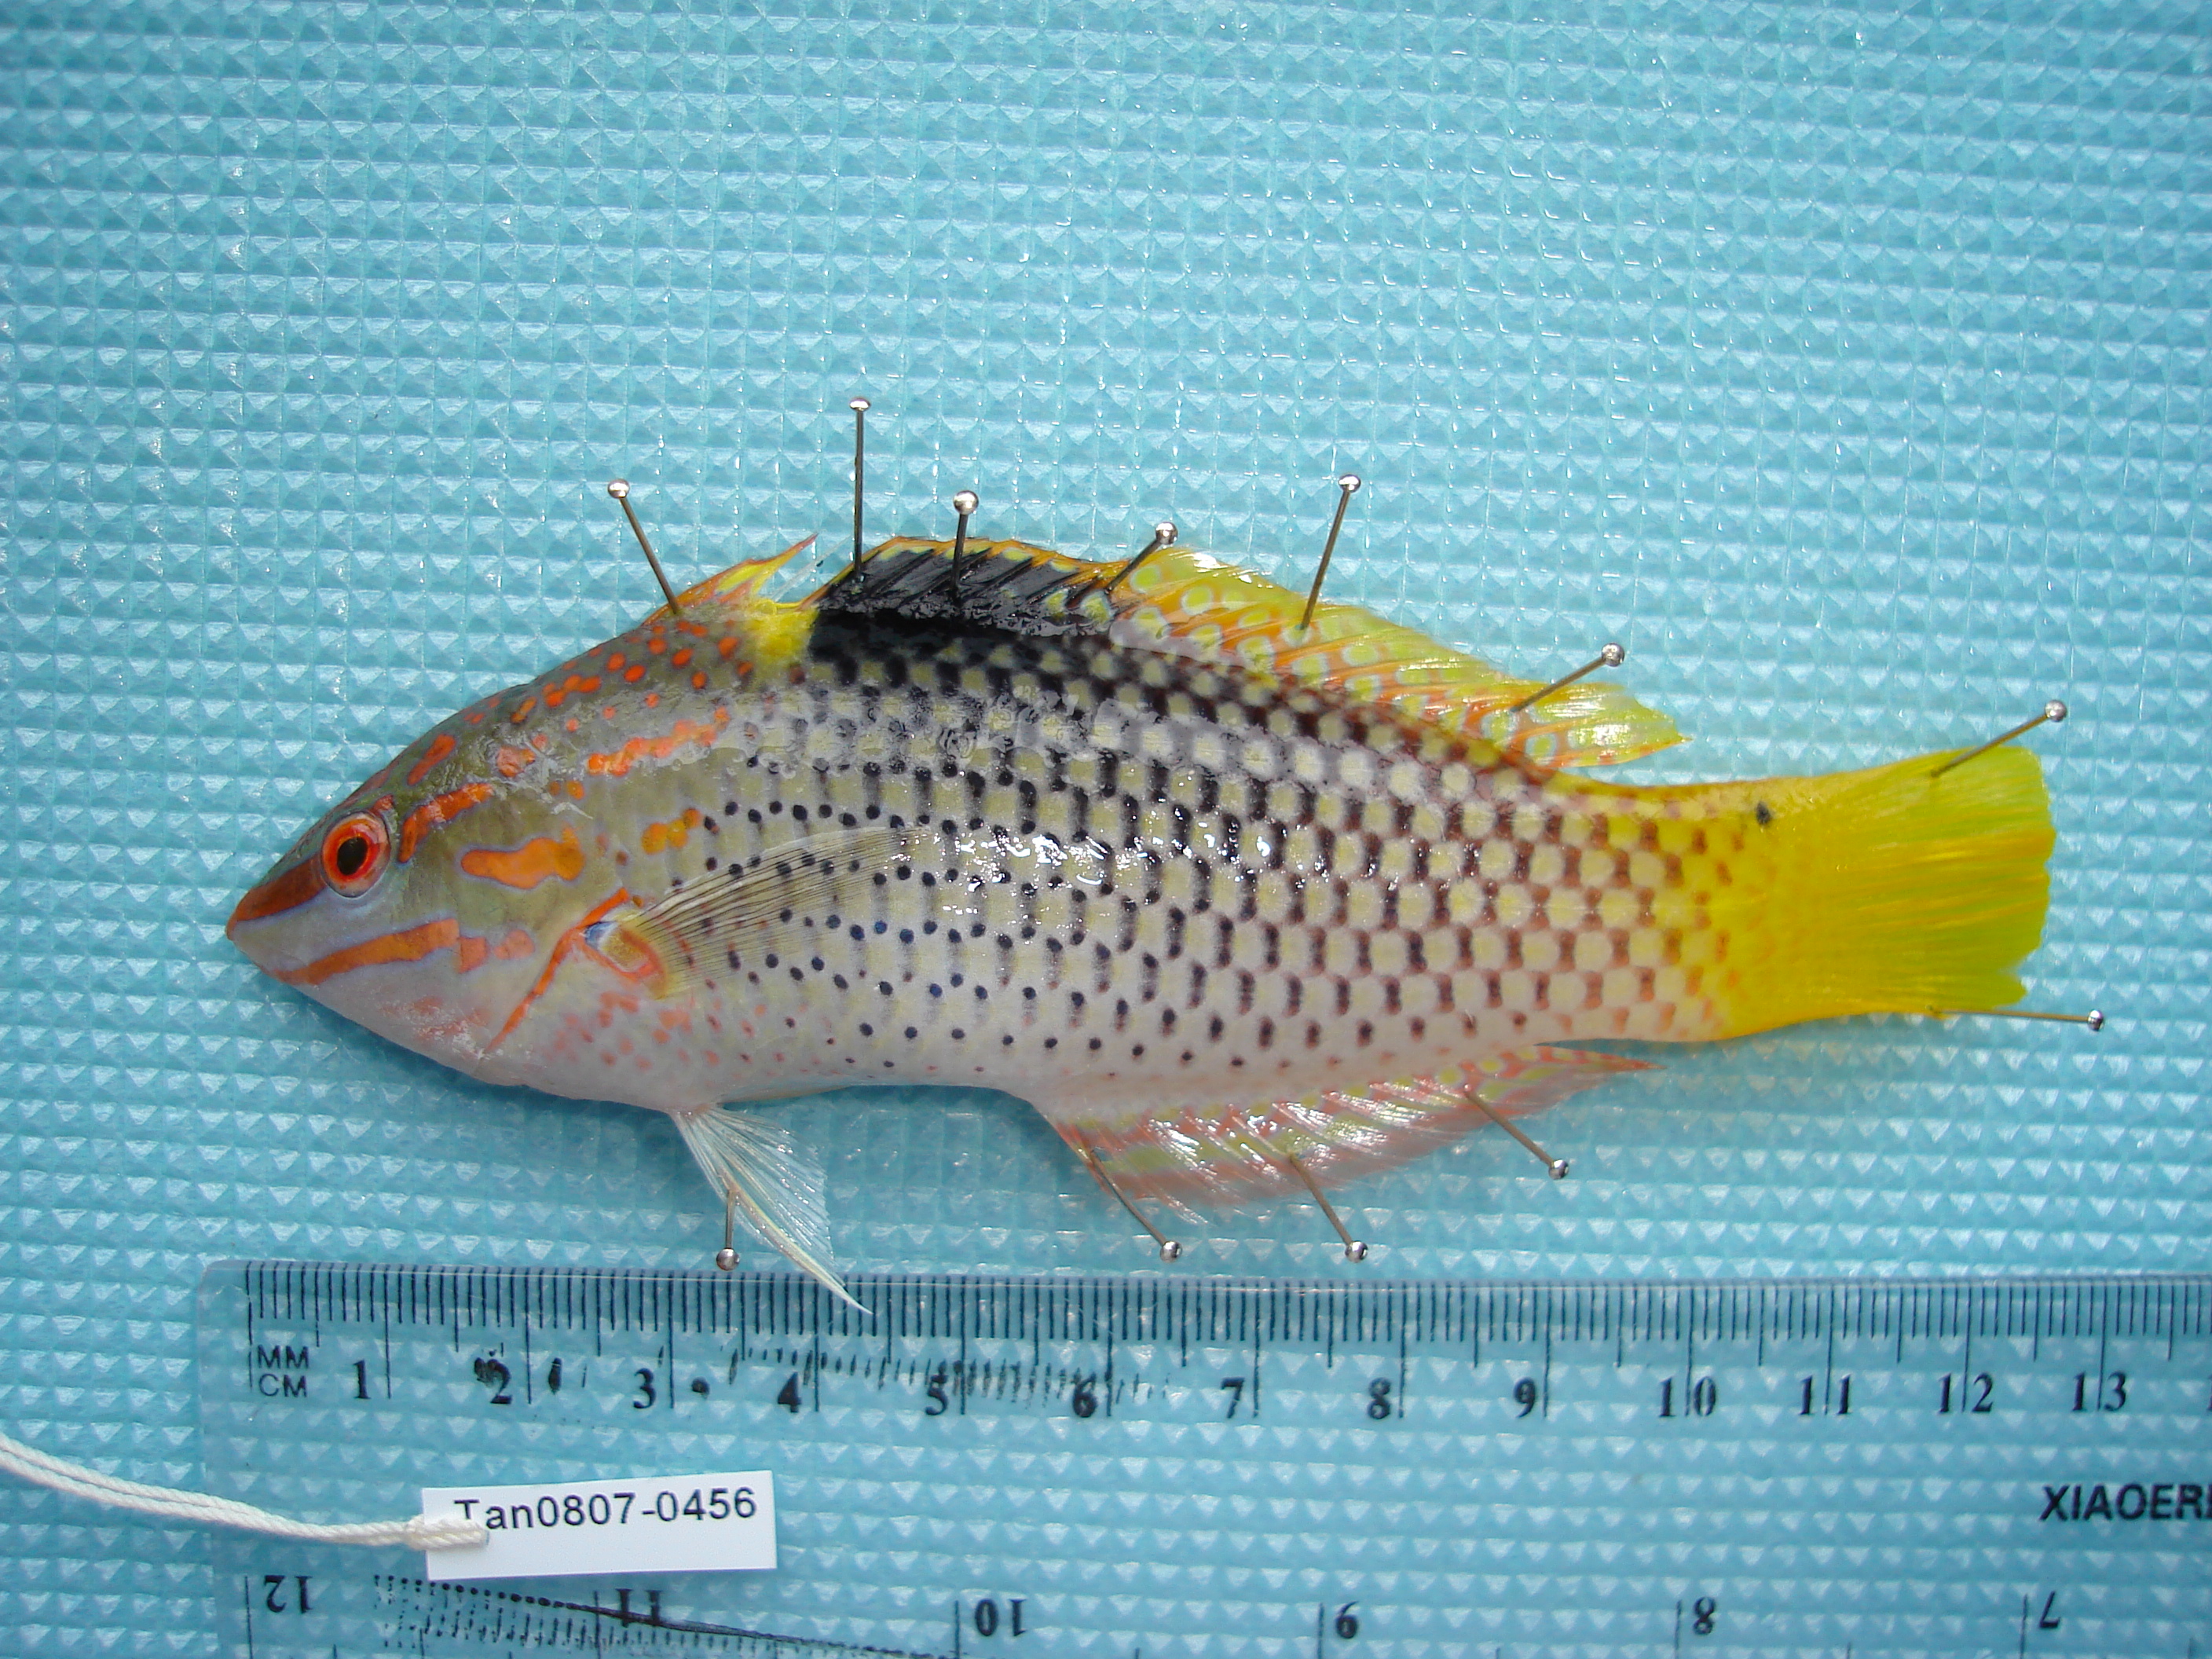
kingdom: Animalia
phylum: Chordata
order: Perciformes
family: Labridae
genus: Halichoeres
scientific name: Halichoeres hortulanus
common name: Checkerboard wrasse
